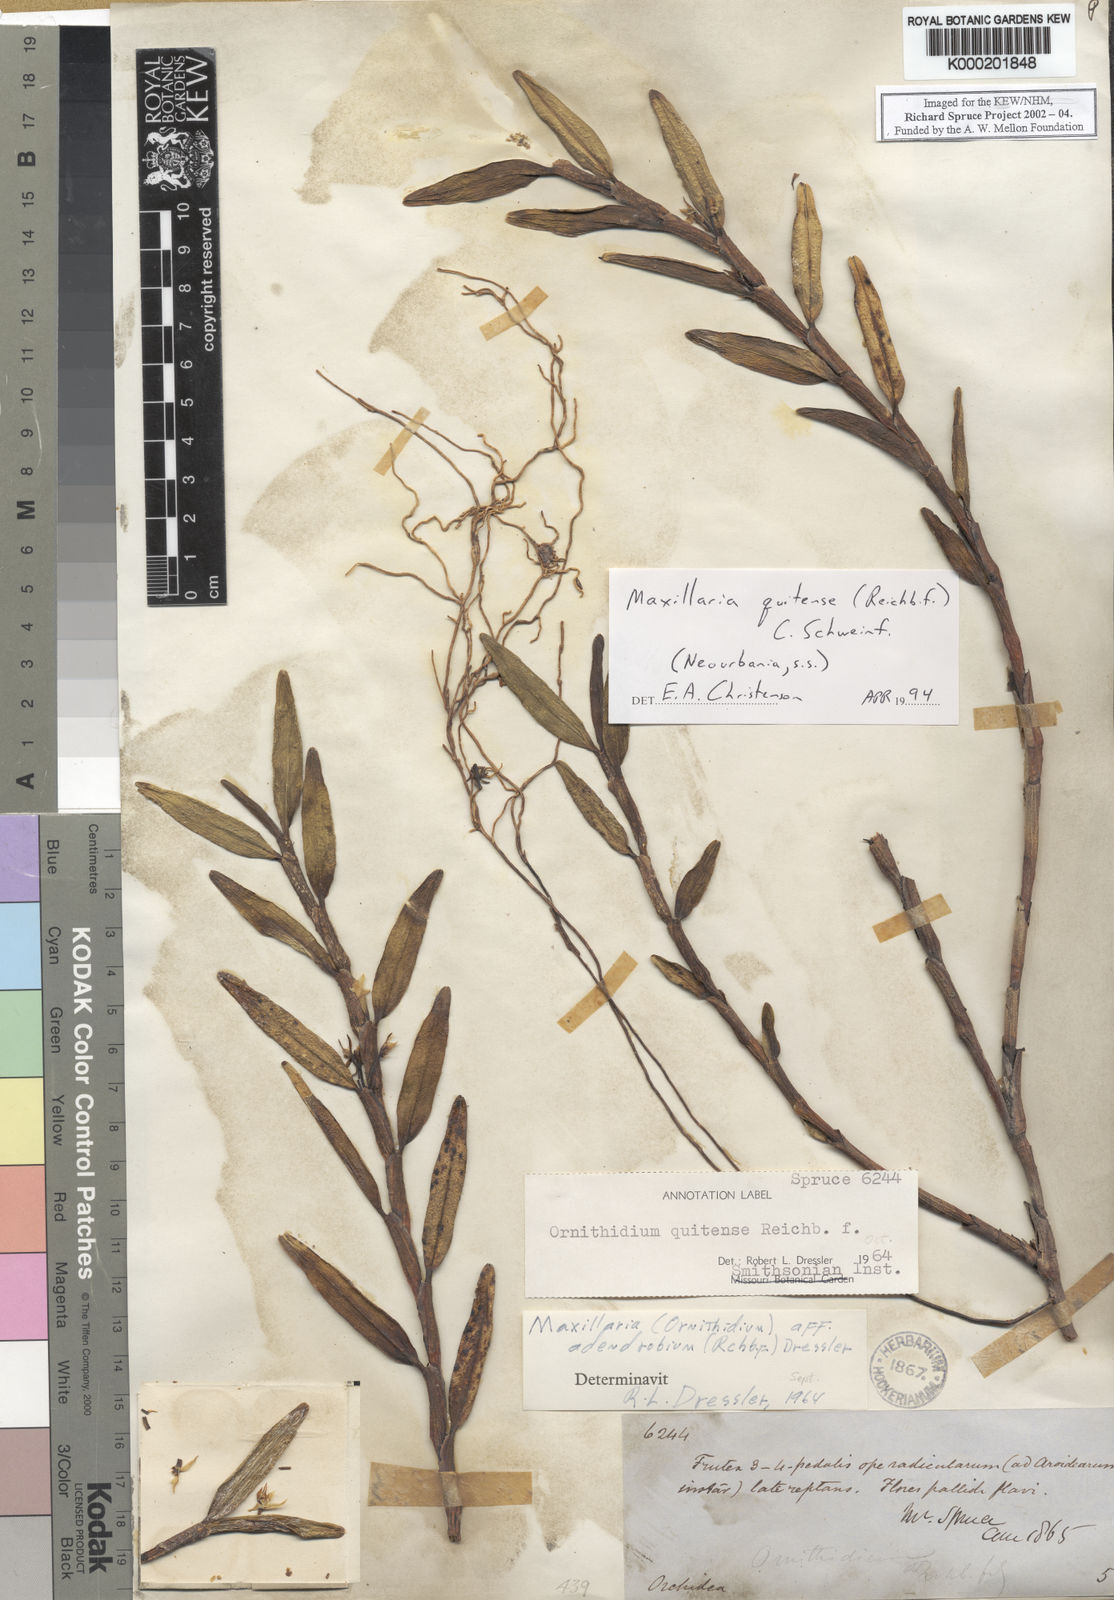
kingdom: Plantae
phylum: Tracheophyta
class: Liliopsida
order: Asparagales
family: Orchidaceae
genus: Maxillaria
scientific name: Maxillaria
